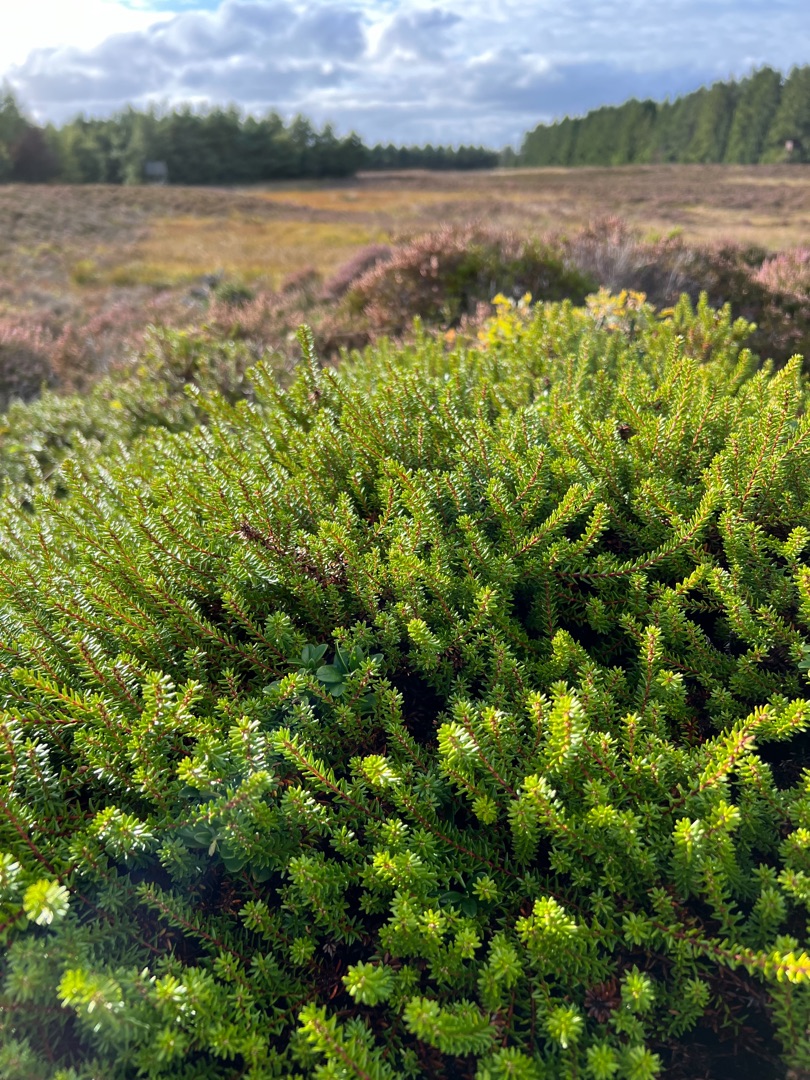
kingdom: Plantae
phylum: Tracheophyta
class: Magnoliopsida
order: Ericales
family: Ericaceae
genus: Empetrum
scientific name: Empetrum nigrum
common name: Revling
